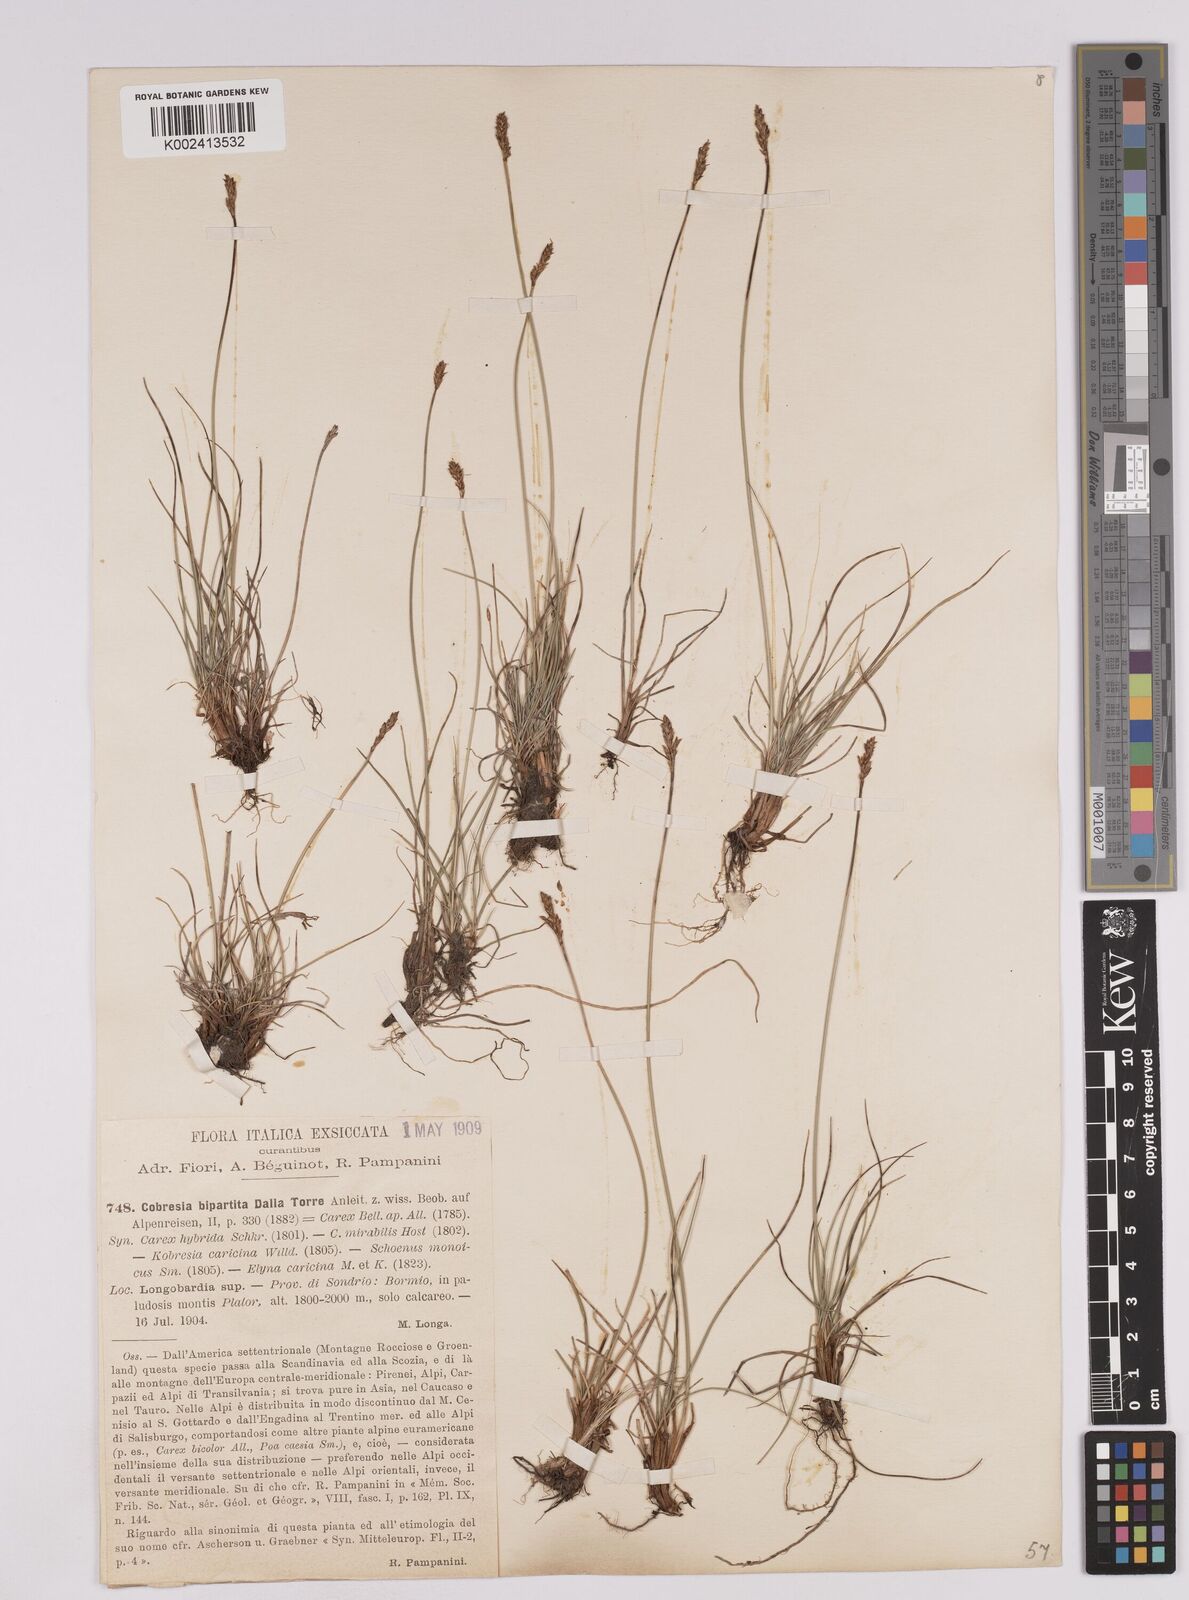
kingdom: Plantae
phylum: Tracheophyta
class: Liliopsida
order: Poales
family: Cyperaceae
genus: Carex
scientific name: Carex simpliciuscula
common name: Simple bog sedge
